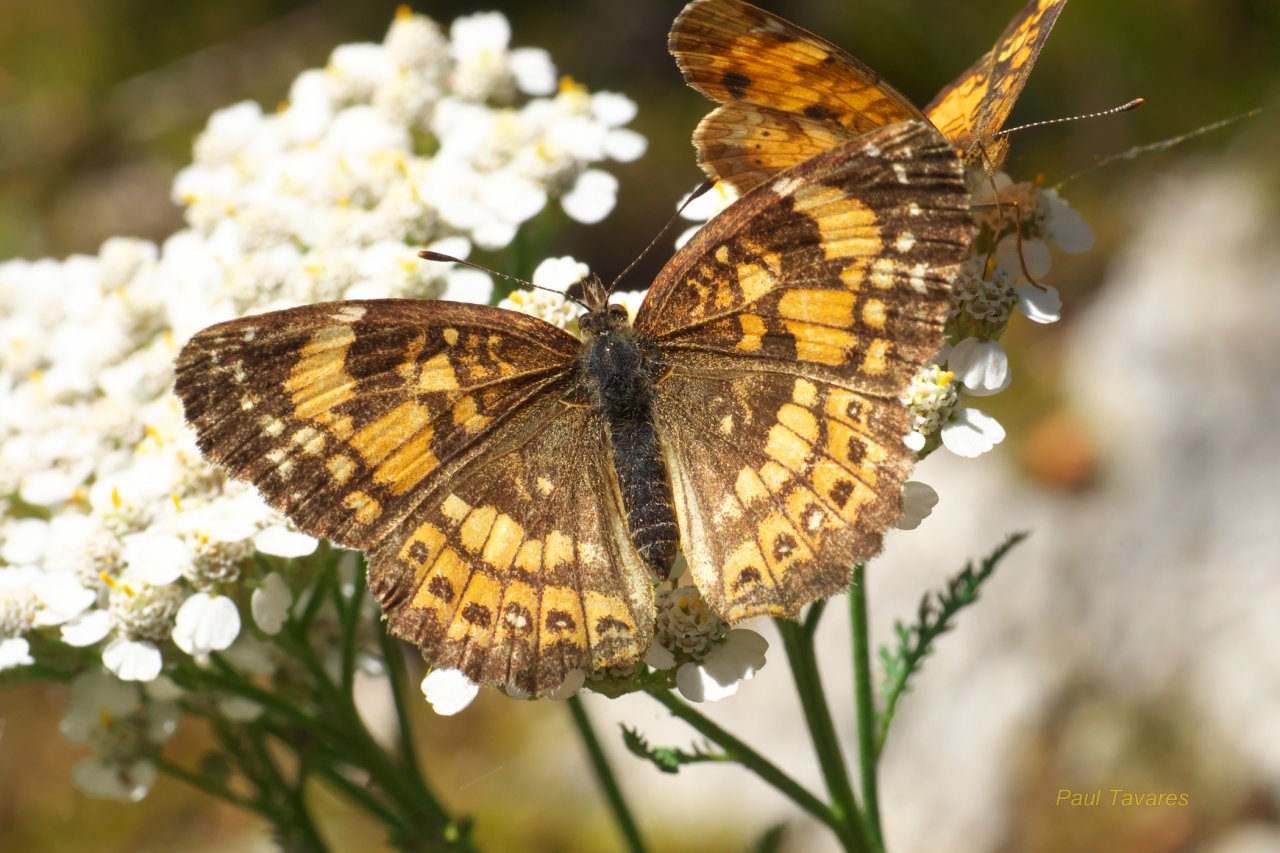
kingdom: Animalia
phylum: Arthropoda
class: Insecta
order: Lepidoptera
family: Nymphalidae
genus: Chlosyne
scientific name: Chlosyne nycteis
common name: Silvery Checkerspot
